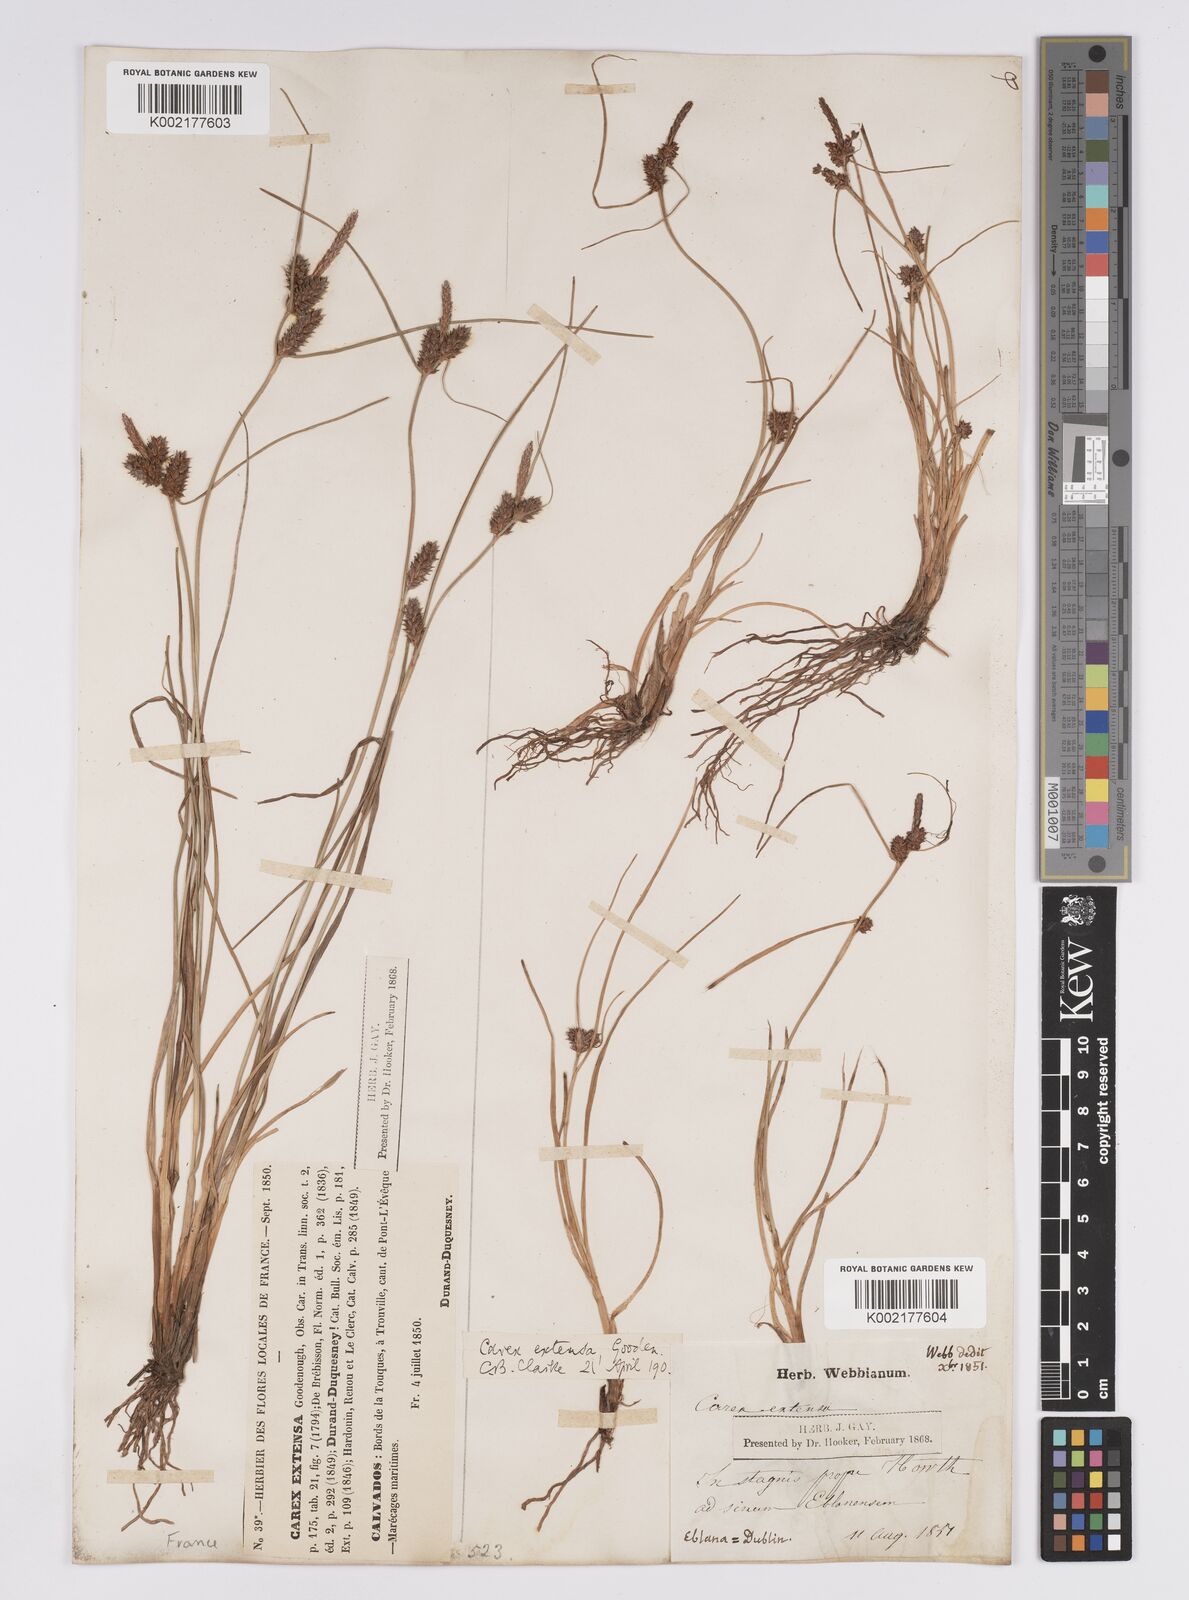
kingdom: Plantae
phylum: Tracheophyta
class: Liliopsida
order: Poales
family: Cyperaceae
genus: Carex
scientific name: Carex extensa
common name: Long-bracted sedge
